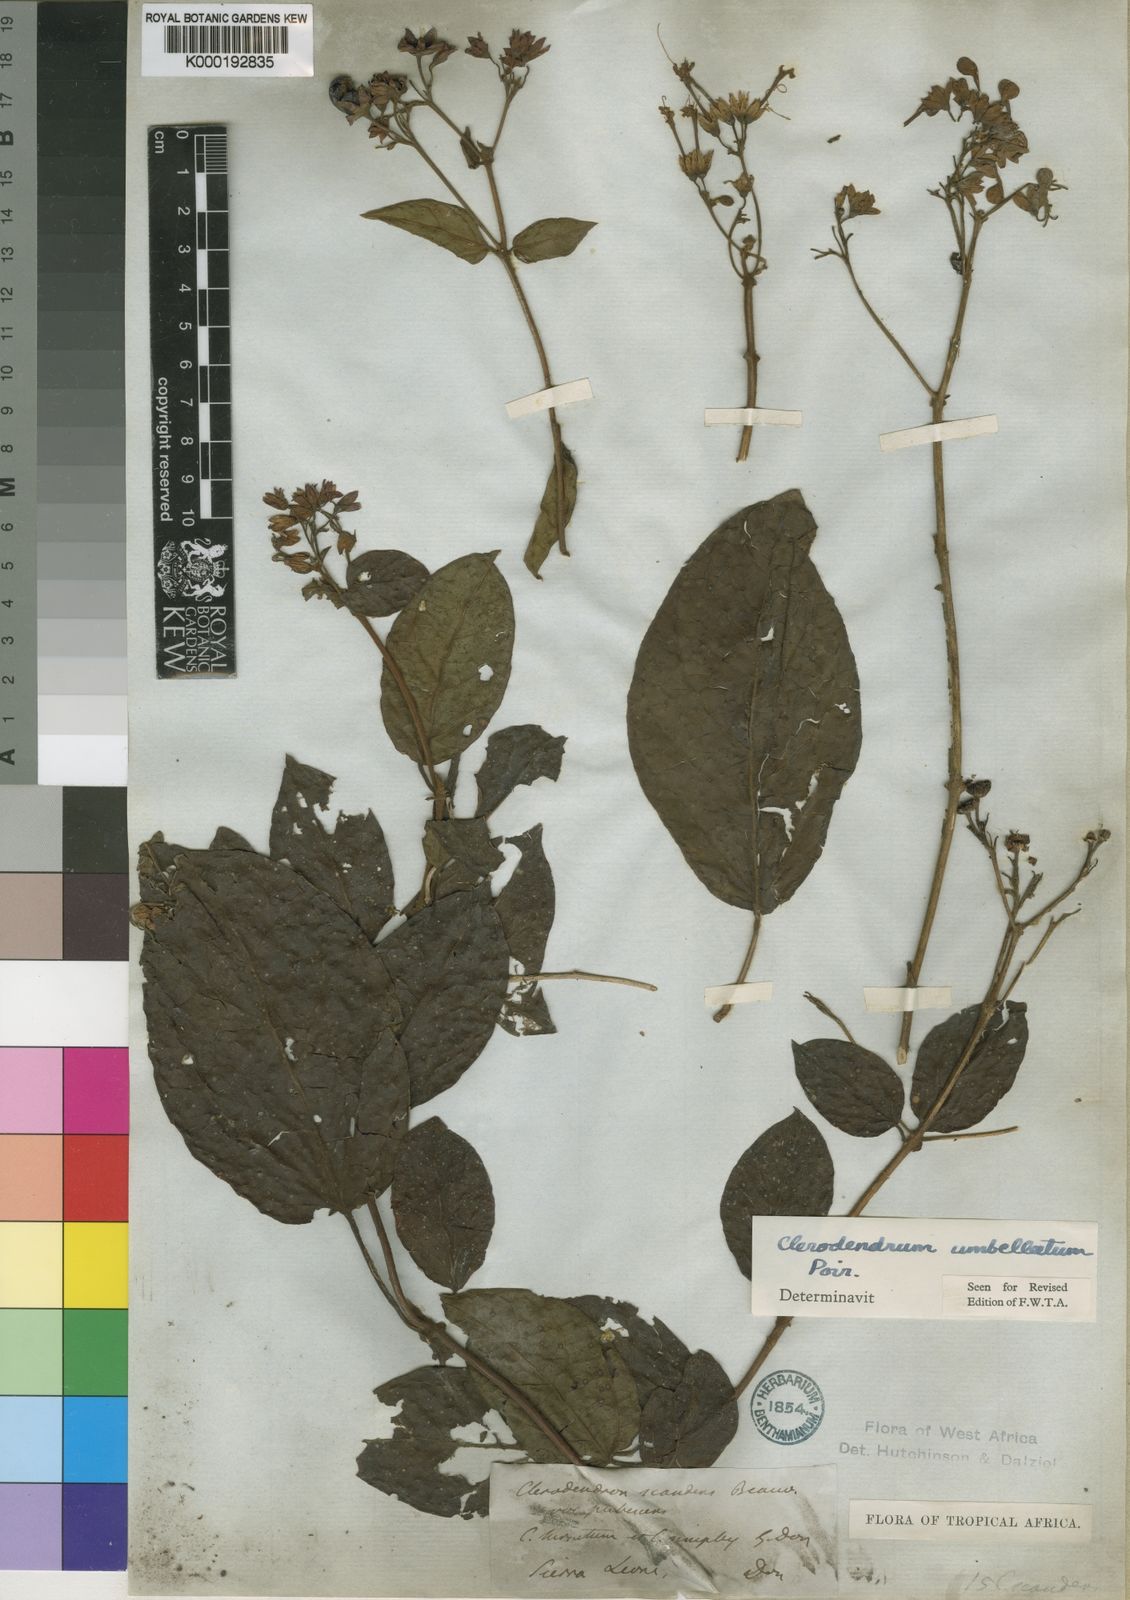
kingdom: Plantae
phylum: Tracheophyta
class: Magnoliopsida
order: Lamiales
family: Lamiaceae
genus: Clerodendrum
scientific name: Clerodendrum umbellatum
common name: Umbel clerodendrum
